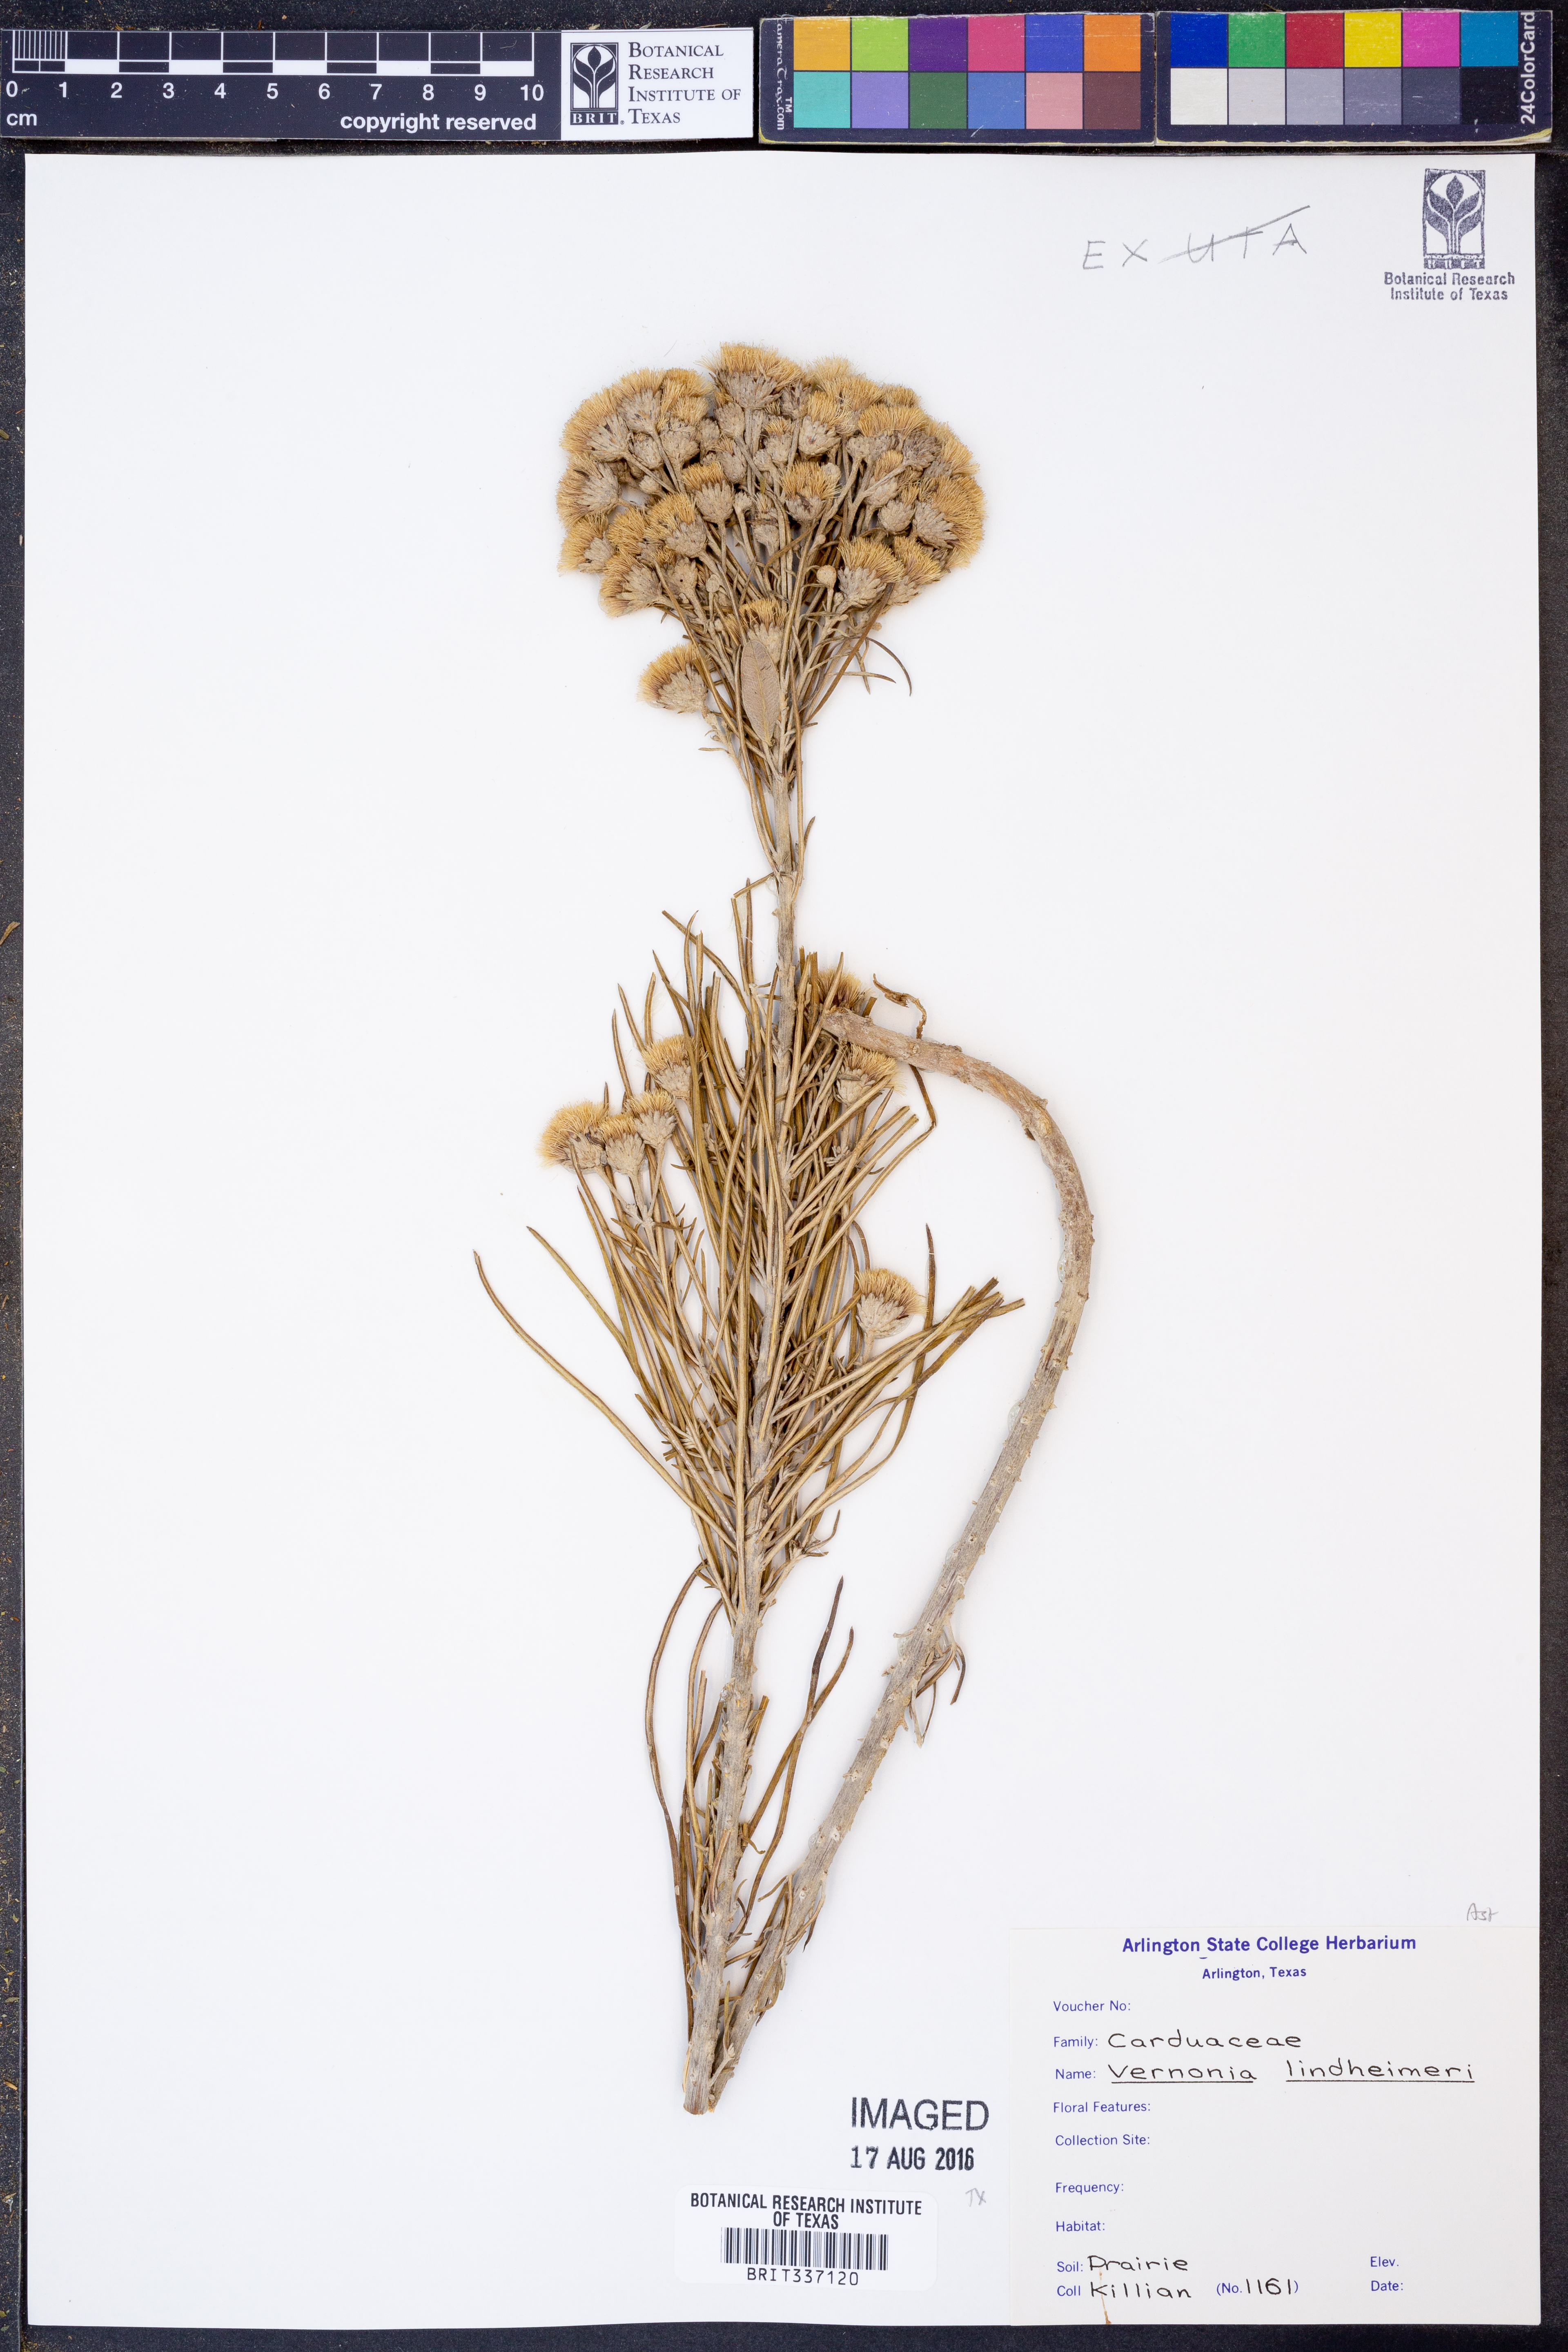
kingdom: Plantae
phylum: Tracheophyta
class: Magnoliopsida
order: Asterales
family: Asteraceae
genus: Vernonia
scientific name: Vernonia lindheimeri
